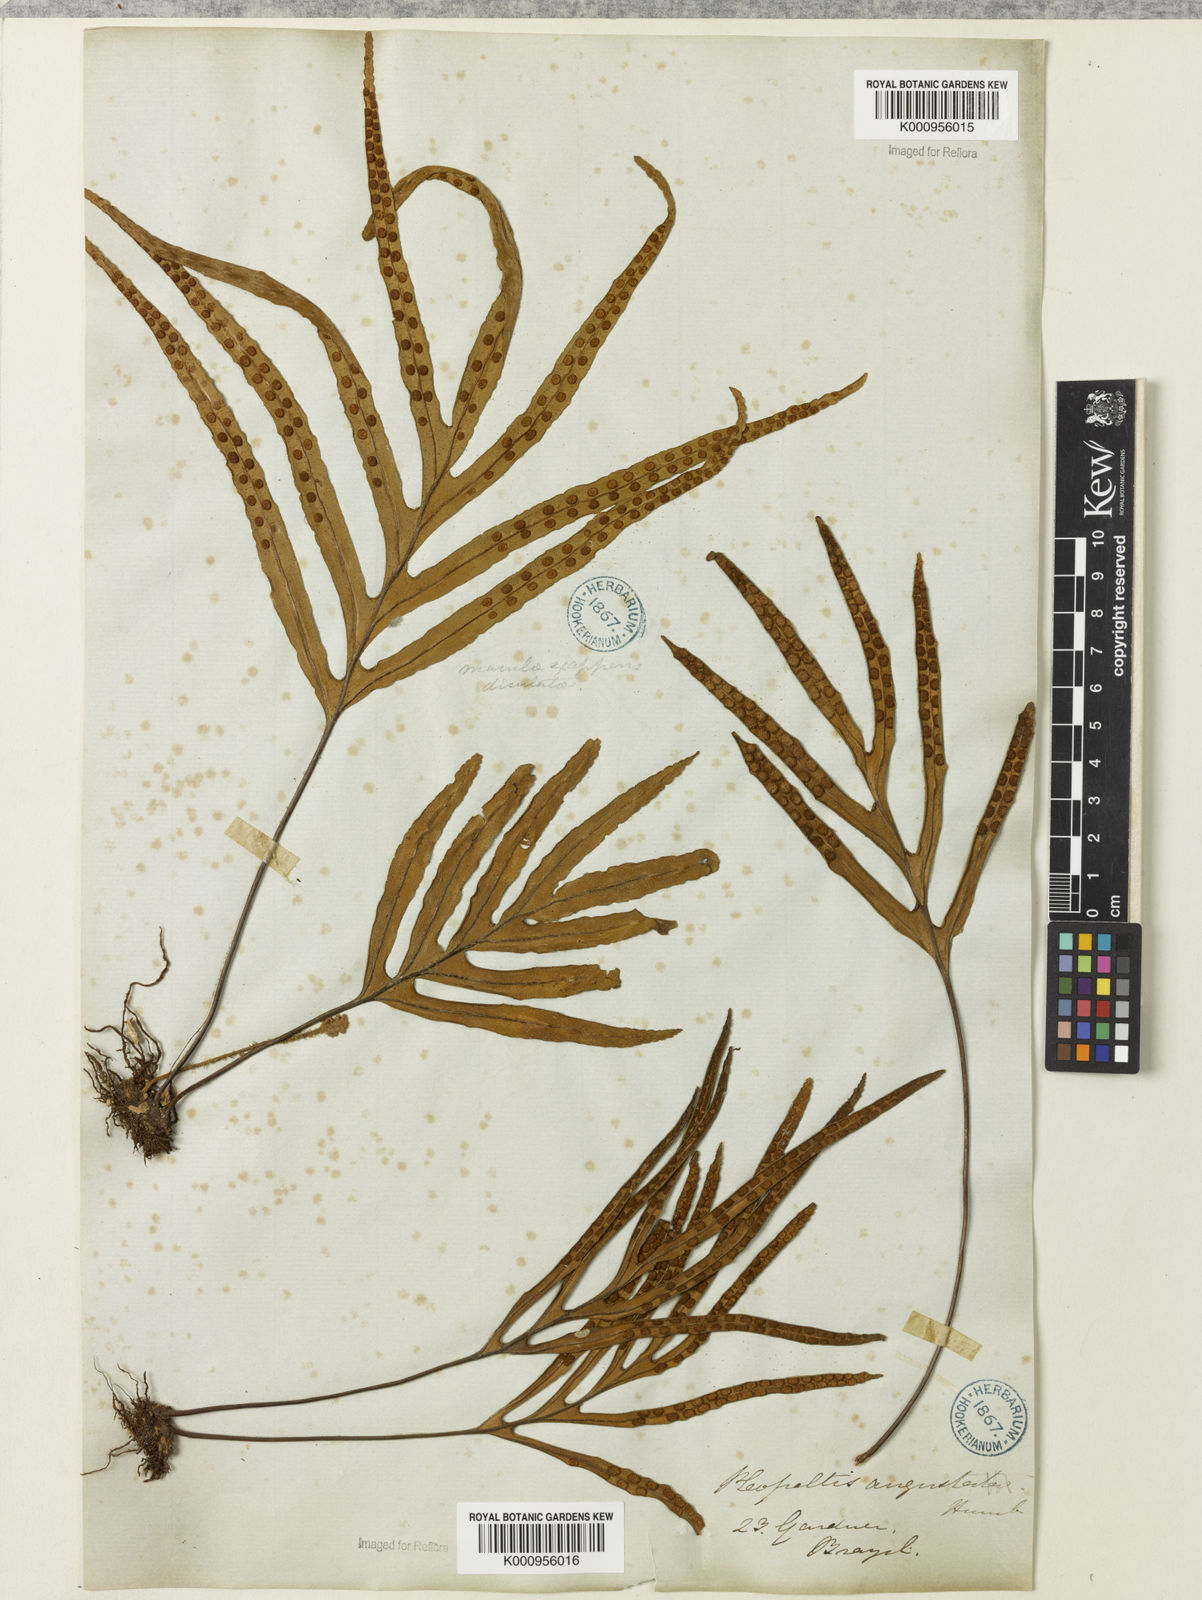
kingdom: Plantae
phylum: Tracheophyta
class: Polypodiopsida
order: Polypodiales
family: Polypodiaceae
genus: Pleopeltis
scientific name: Pleopeltis angusta
